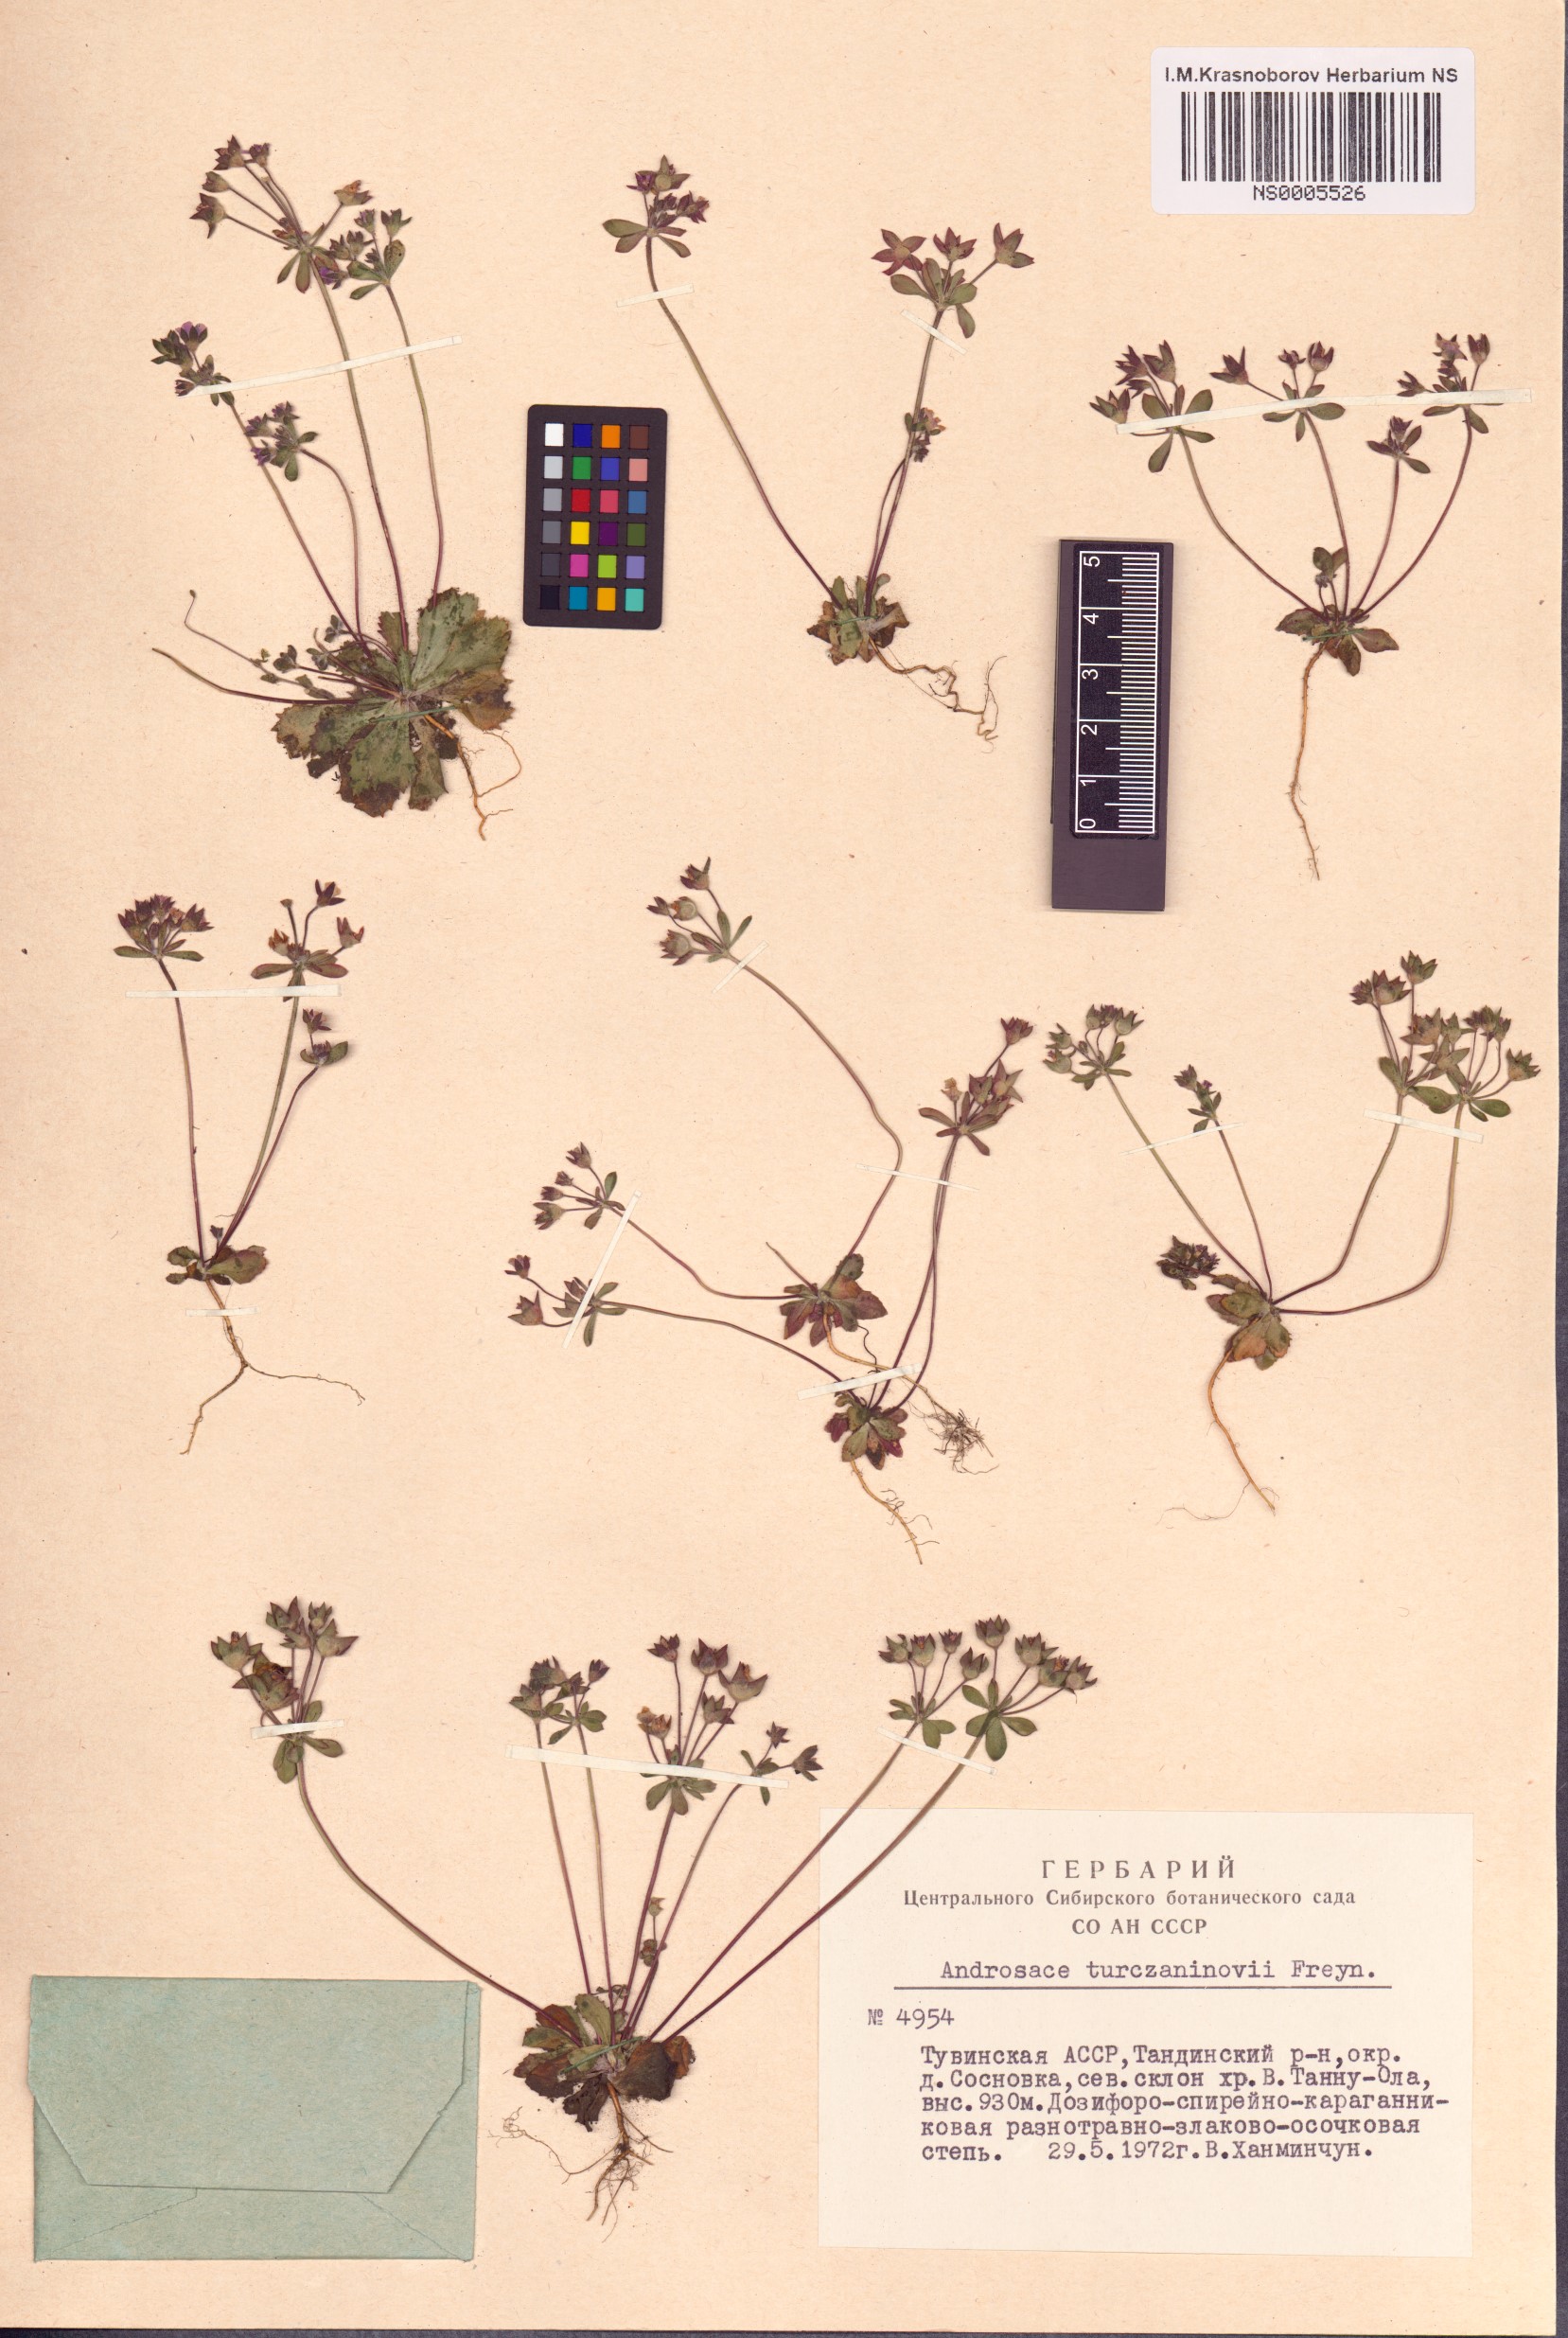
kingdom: Plantae
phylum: Tracheophyta
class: Magnoliopsida
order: Ericales
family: Primulaceae
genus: Androsace
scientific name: Androsace maxima
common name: Annual androsace
